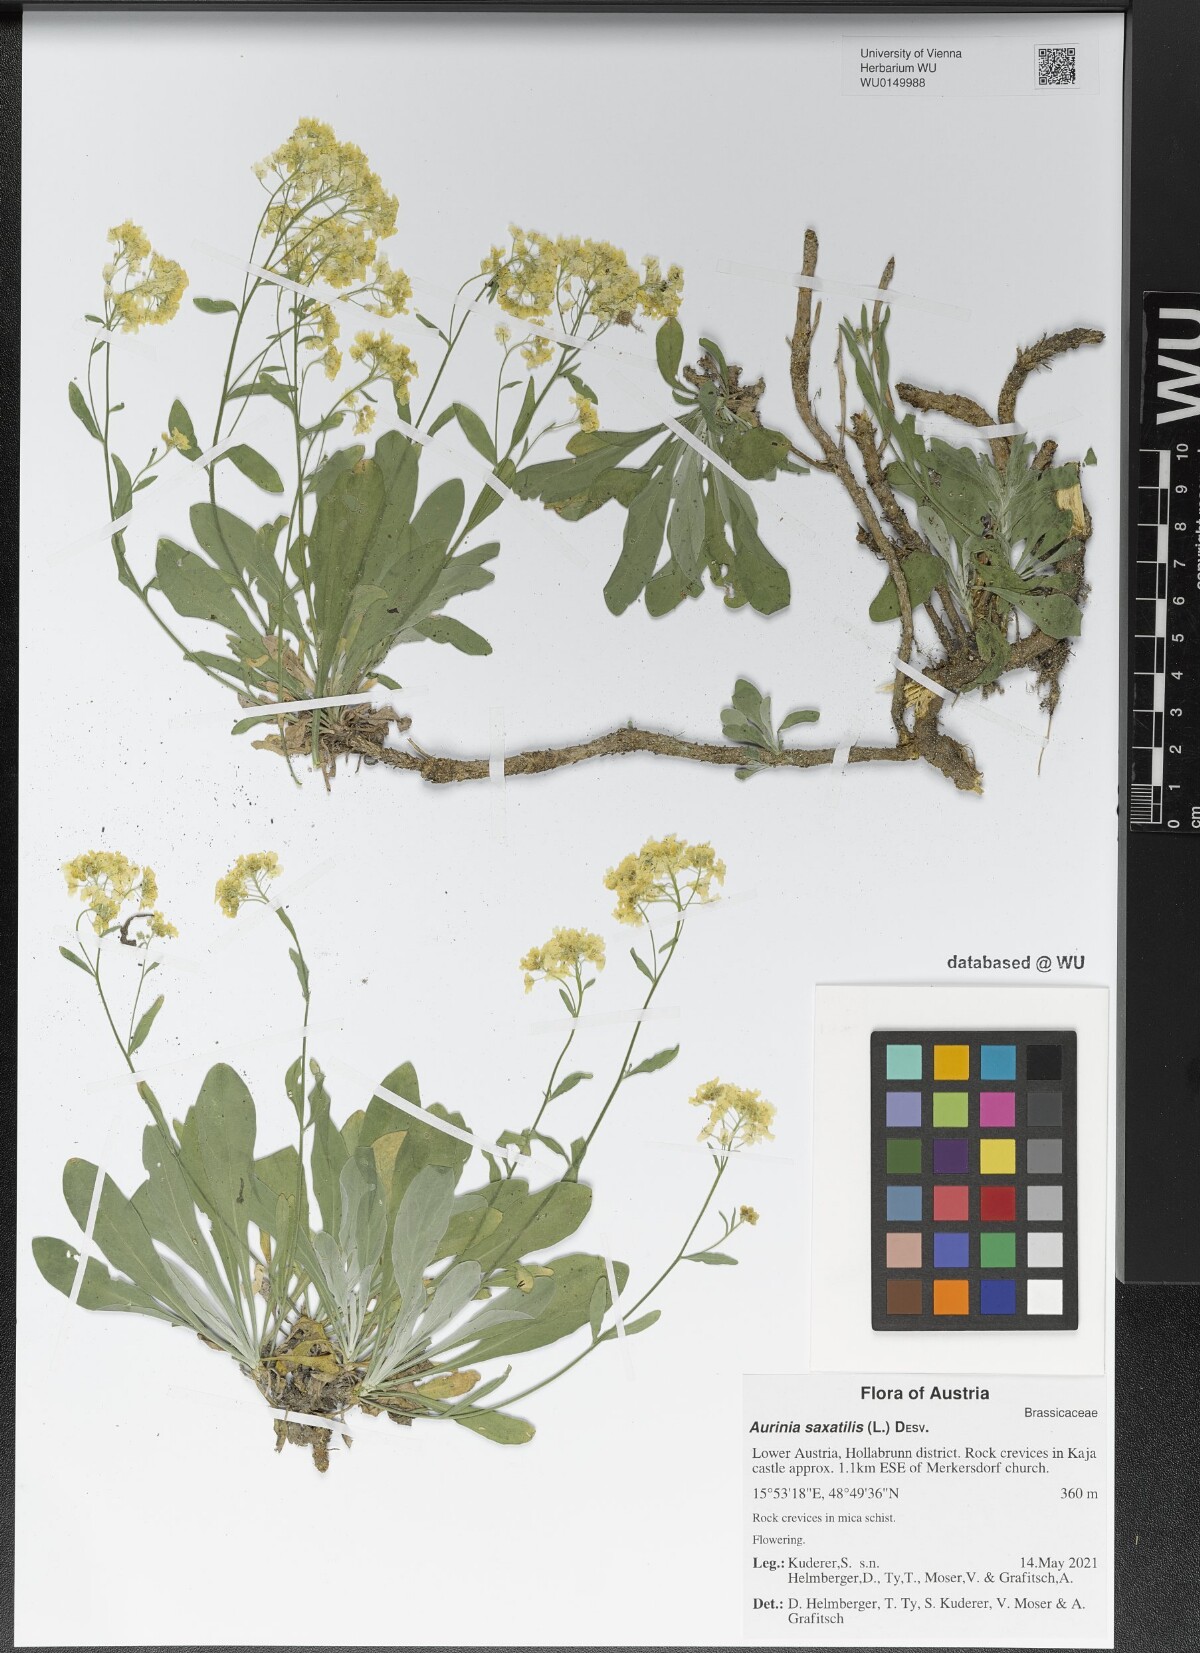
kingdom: Plantae
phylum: Tracheophyta
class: Magnoliopsida
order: Brassicales
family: Brassicaceae
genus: Aurinia
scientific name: Aurinia saxatilis
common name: Golden-tuft alyssum
